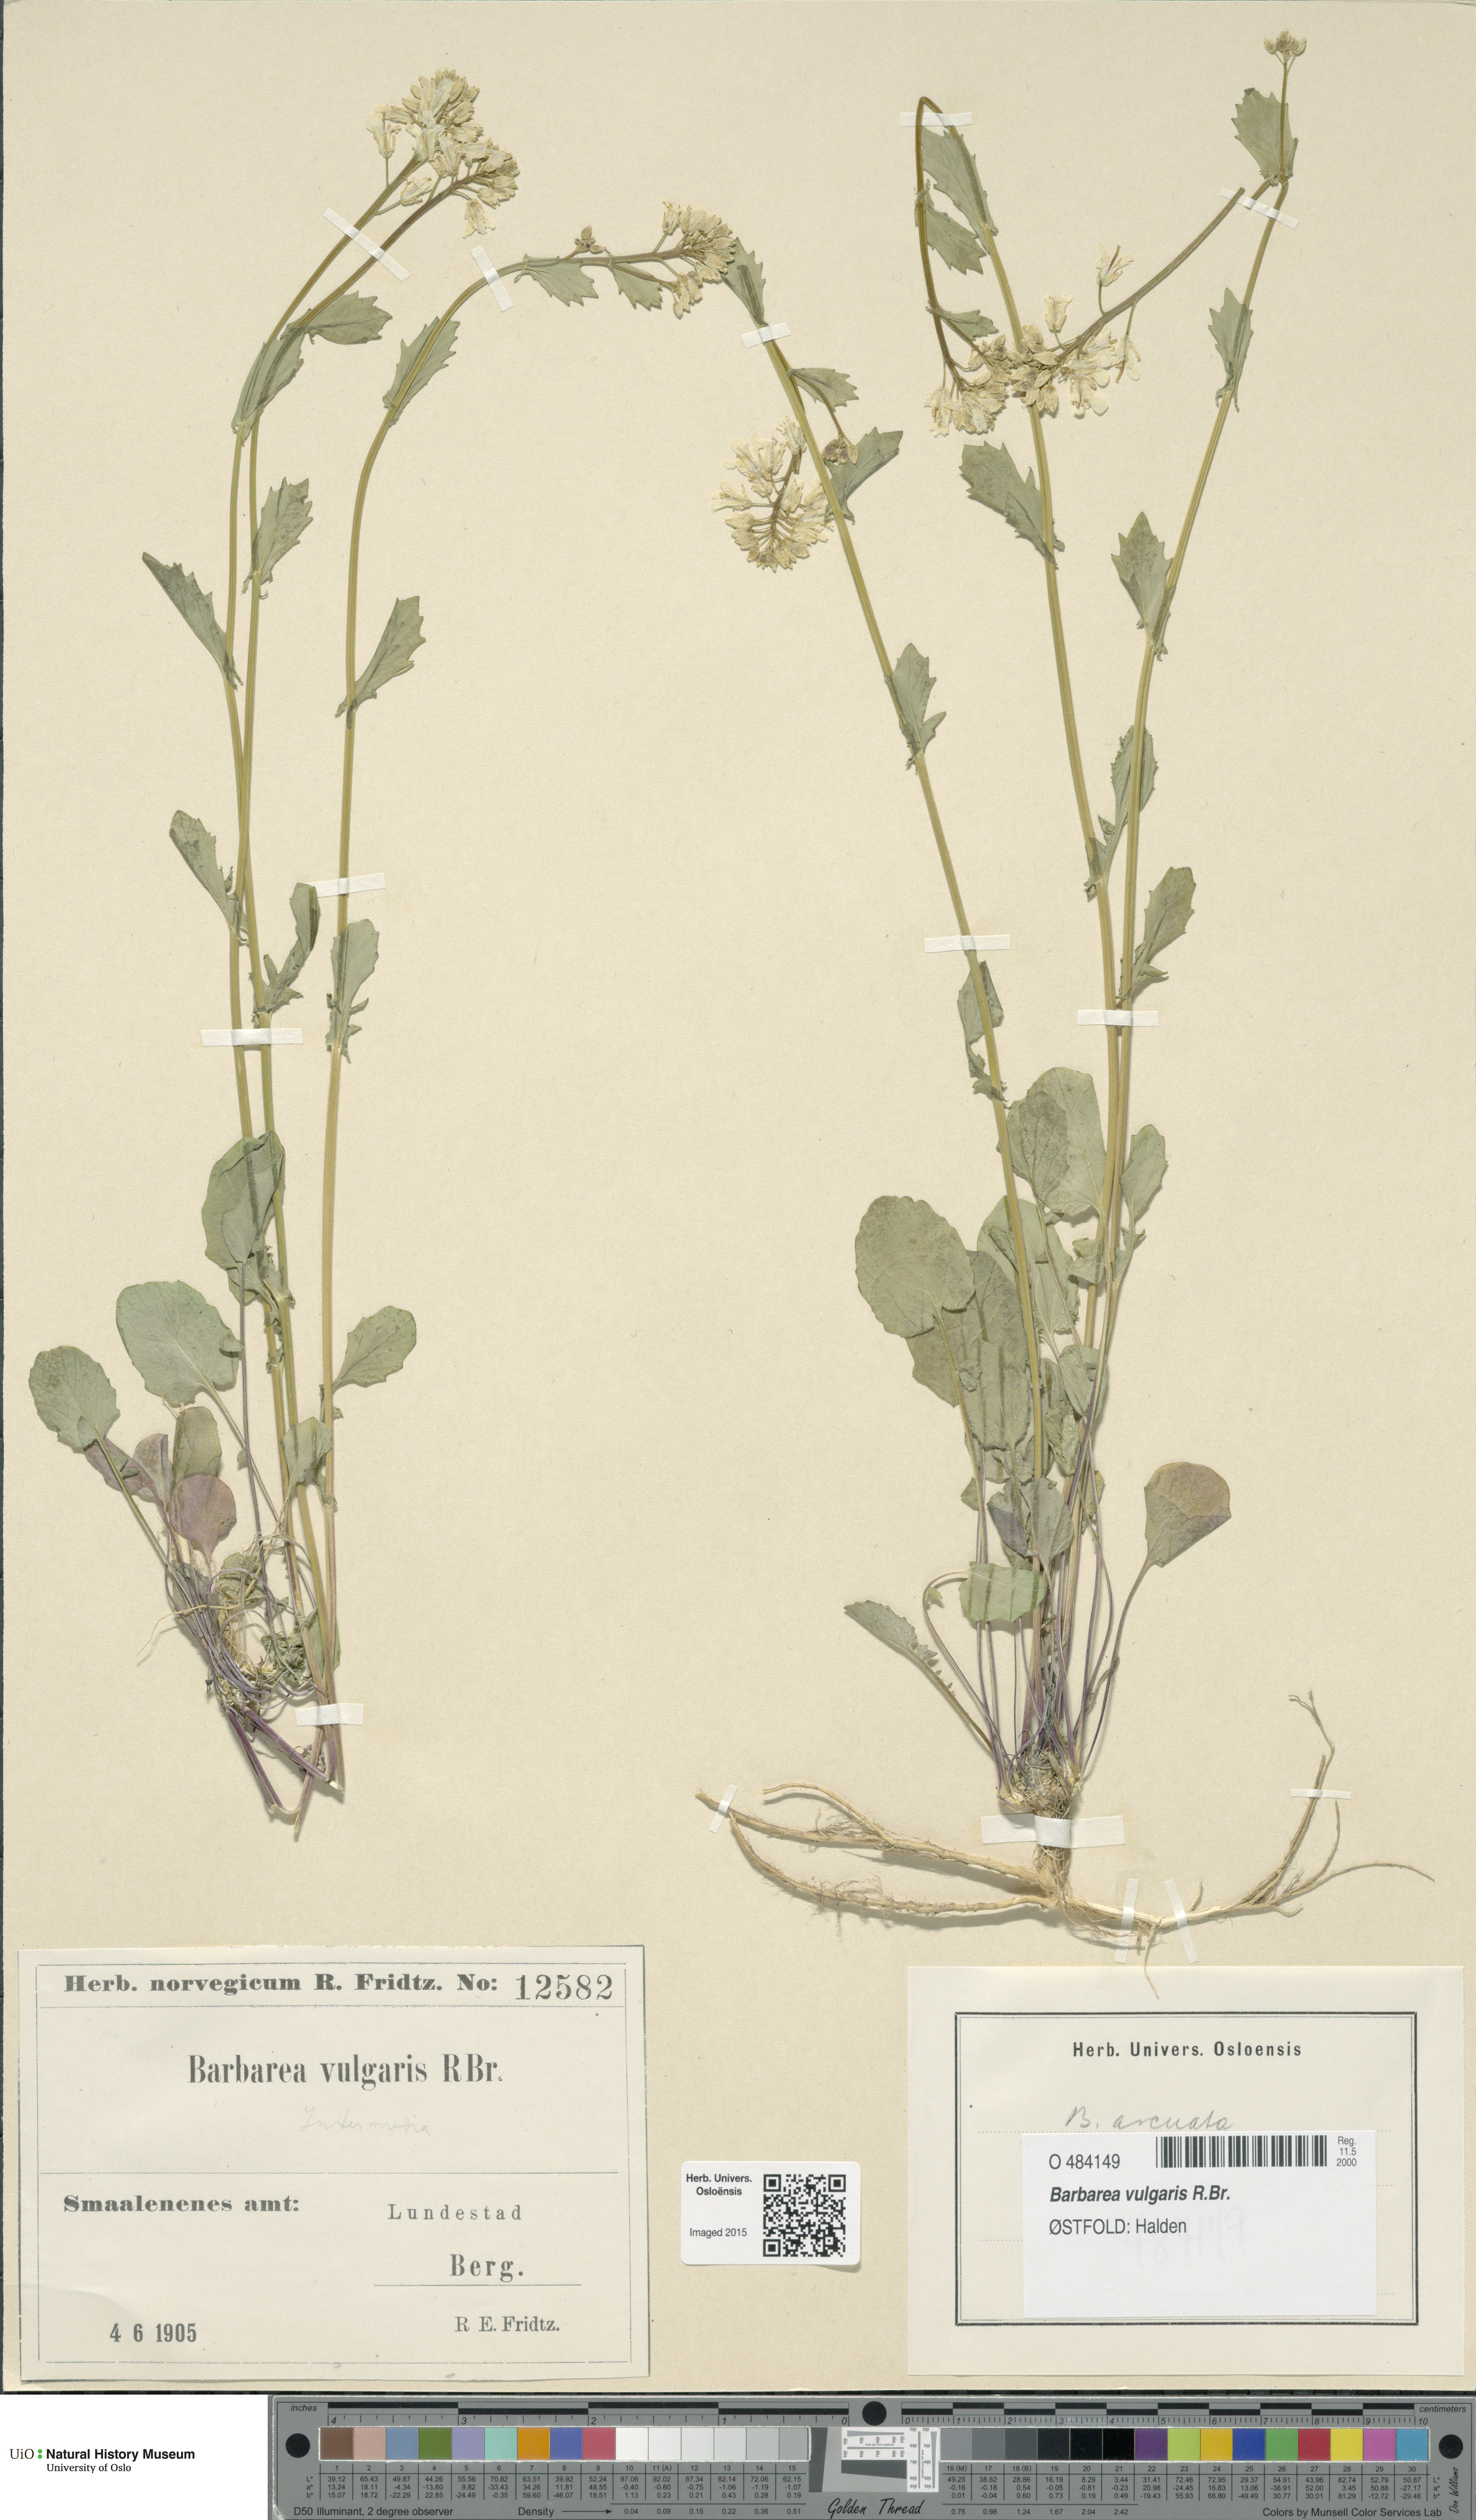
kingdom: Plantae
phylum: Tracheophyta
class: Magnoliopsida
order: Brassicales
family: Brassicaceae
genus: Barbarea
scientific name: Barbarea vulgaris
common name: Cressy-greens
